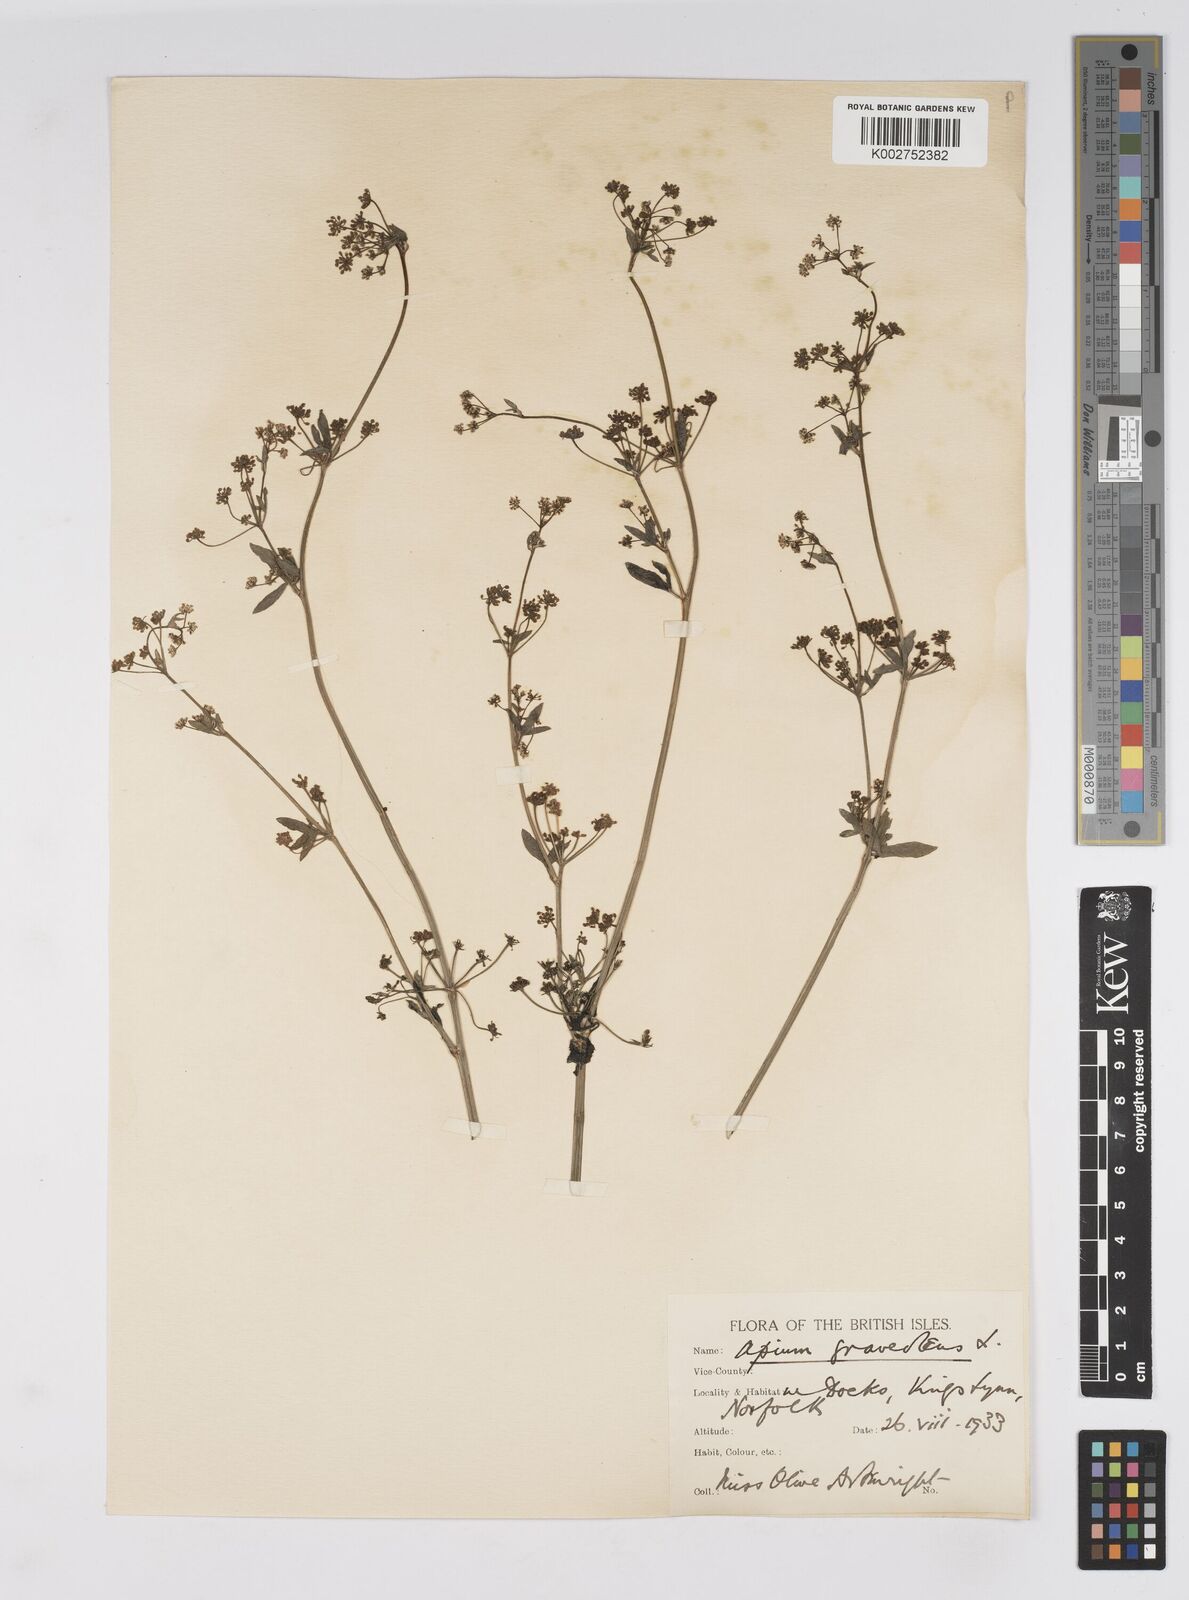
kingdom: Plantae
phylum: Tracheophyta
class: Magnoliopsida
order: Apiales
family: Apiaceae
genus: Apium
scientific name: Apium graveolens
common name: Wild celery
